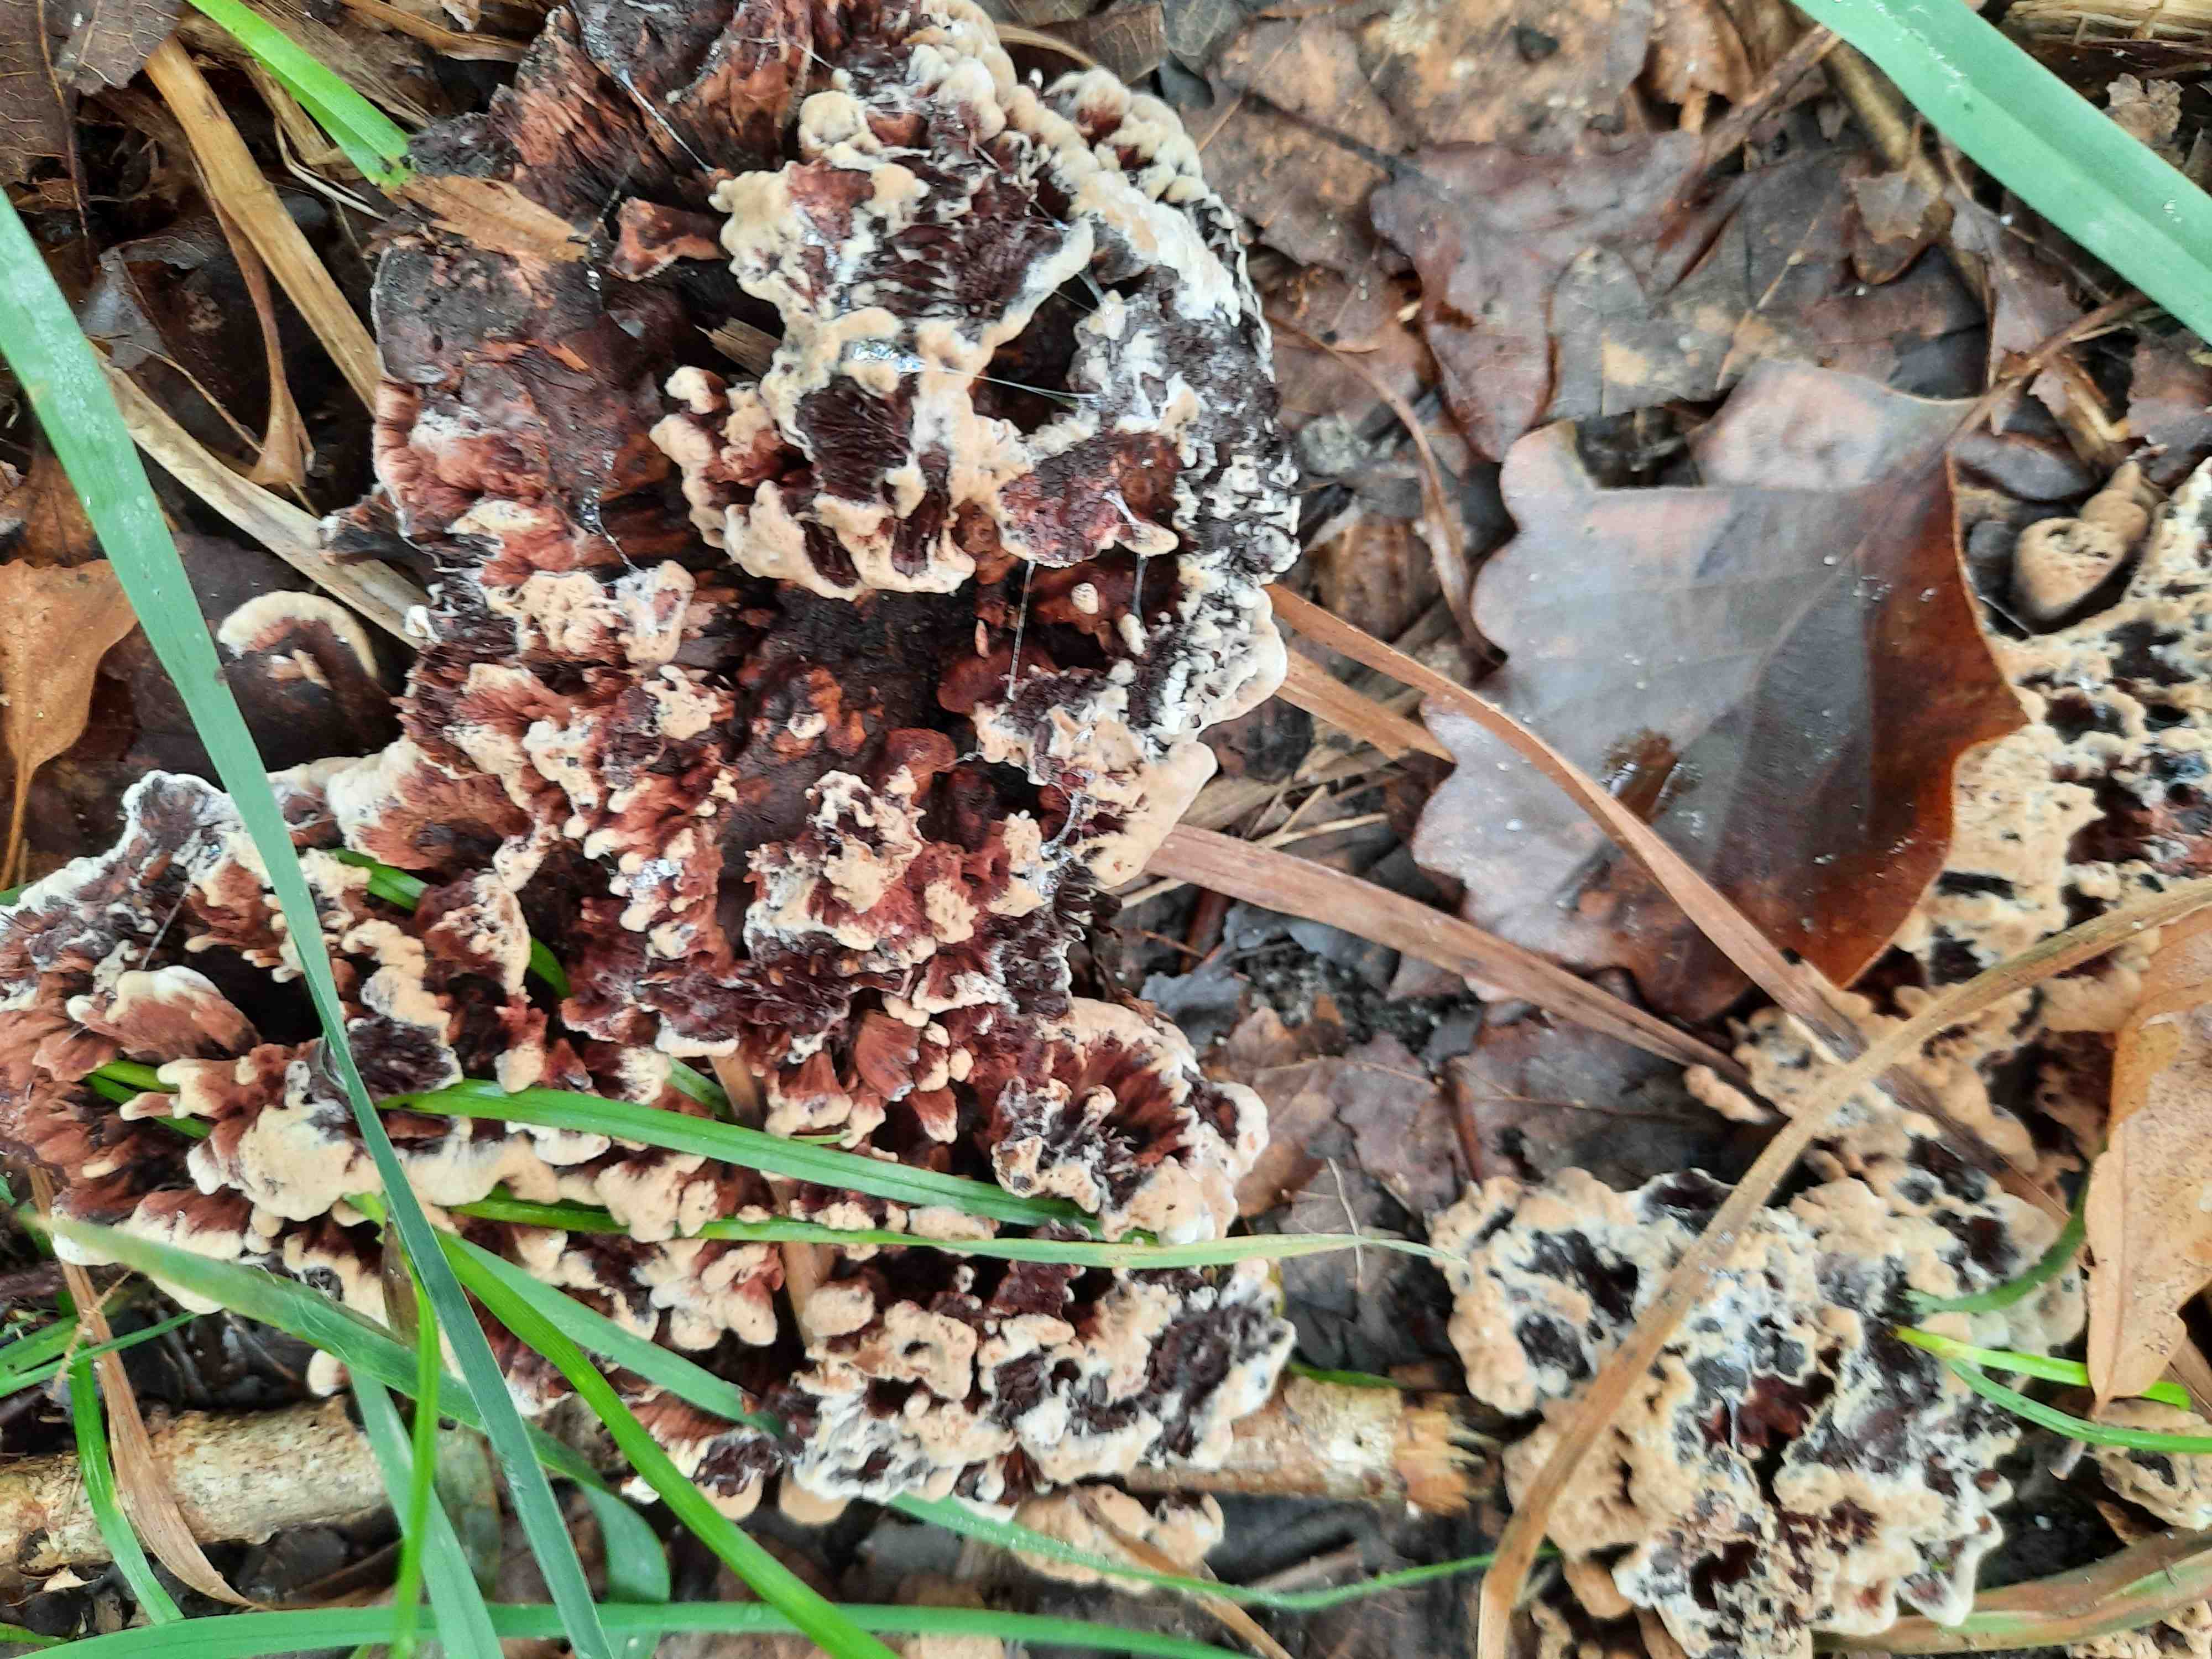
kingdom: Fungi
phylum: Basidiomycota
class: Agaricomycetes
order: Thelephorales
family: Bankeraceae
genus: Hydnellum
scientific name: Hydnellum concrescens
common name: bæltet korkpigsvamp
